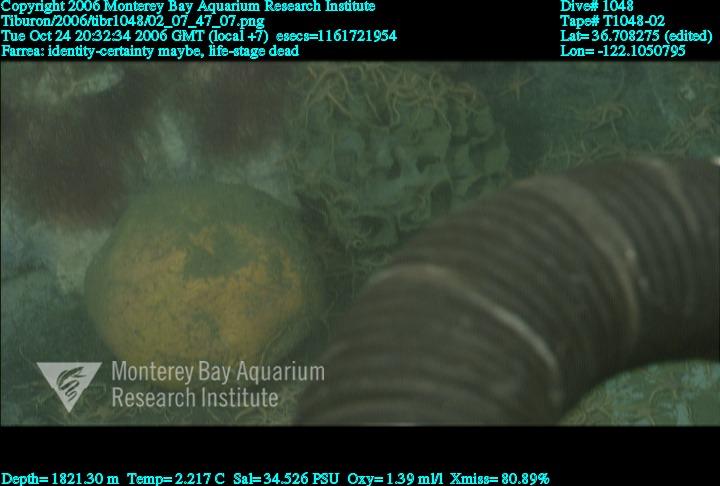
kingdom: Animalia
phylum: Porifera
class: Hexactinellida
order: Sceptrulophora
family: Farreidae
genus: Farrea
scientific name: Farrea
